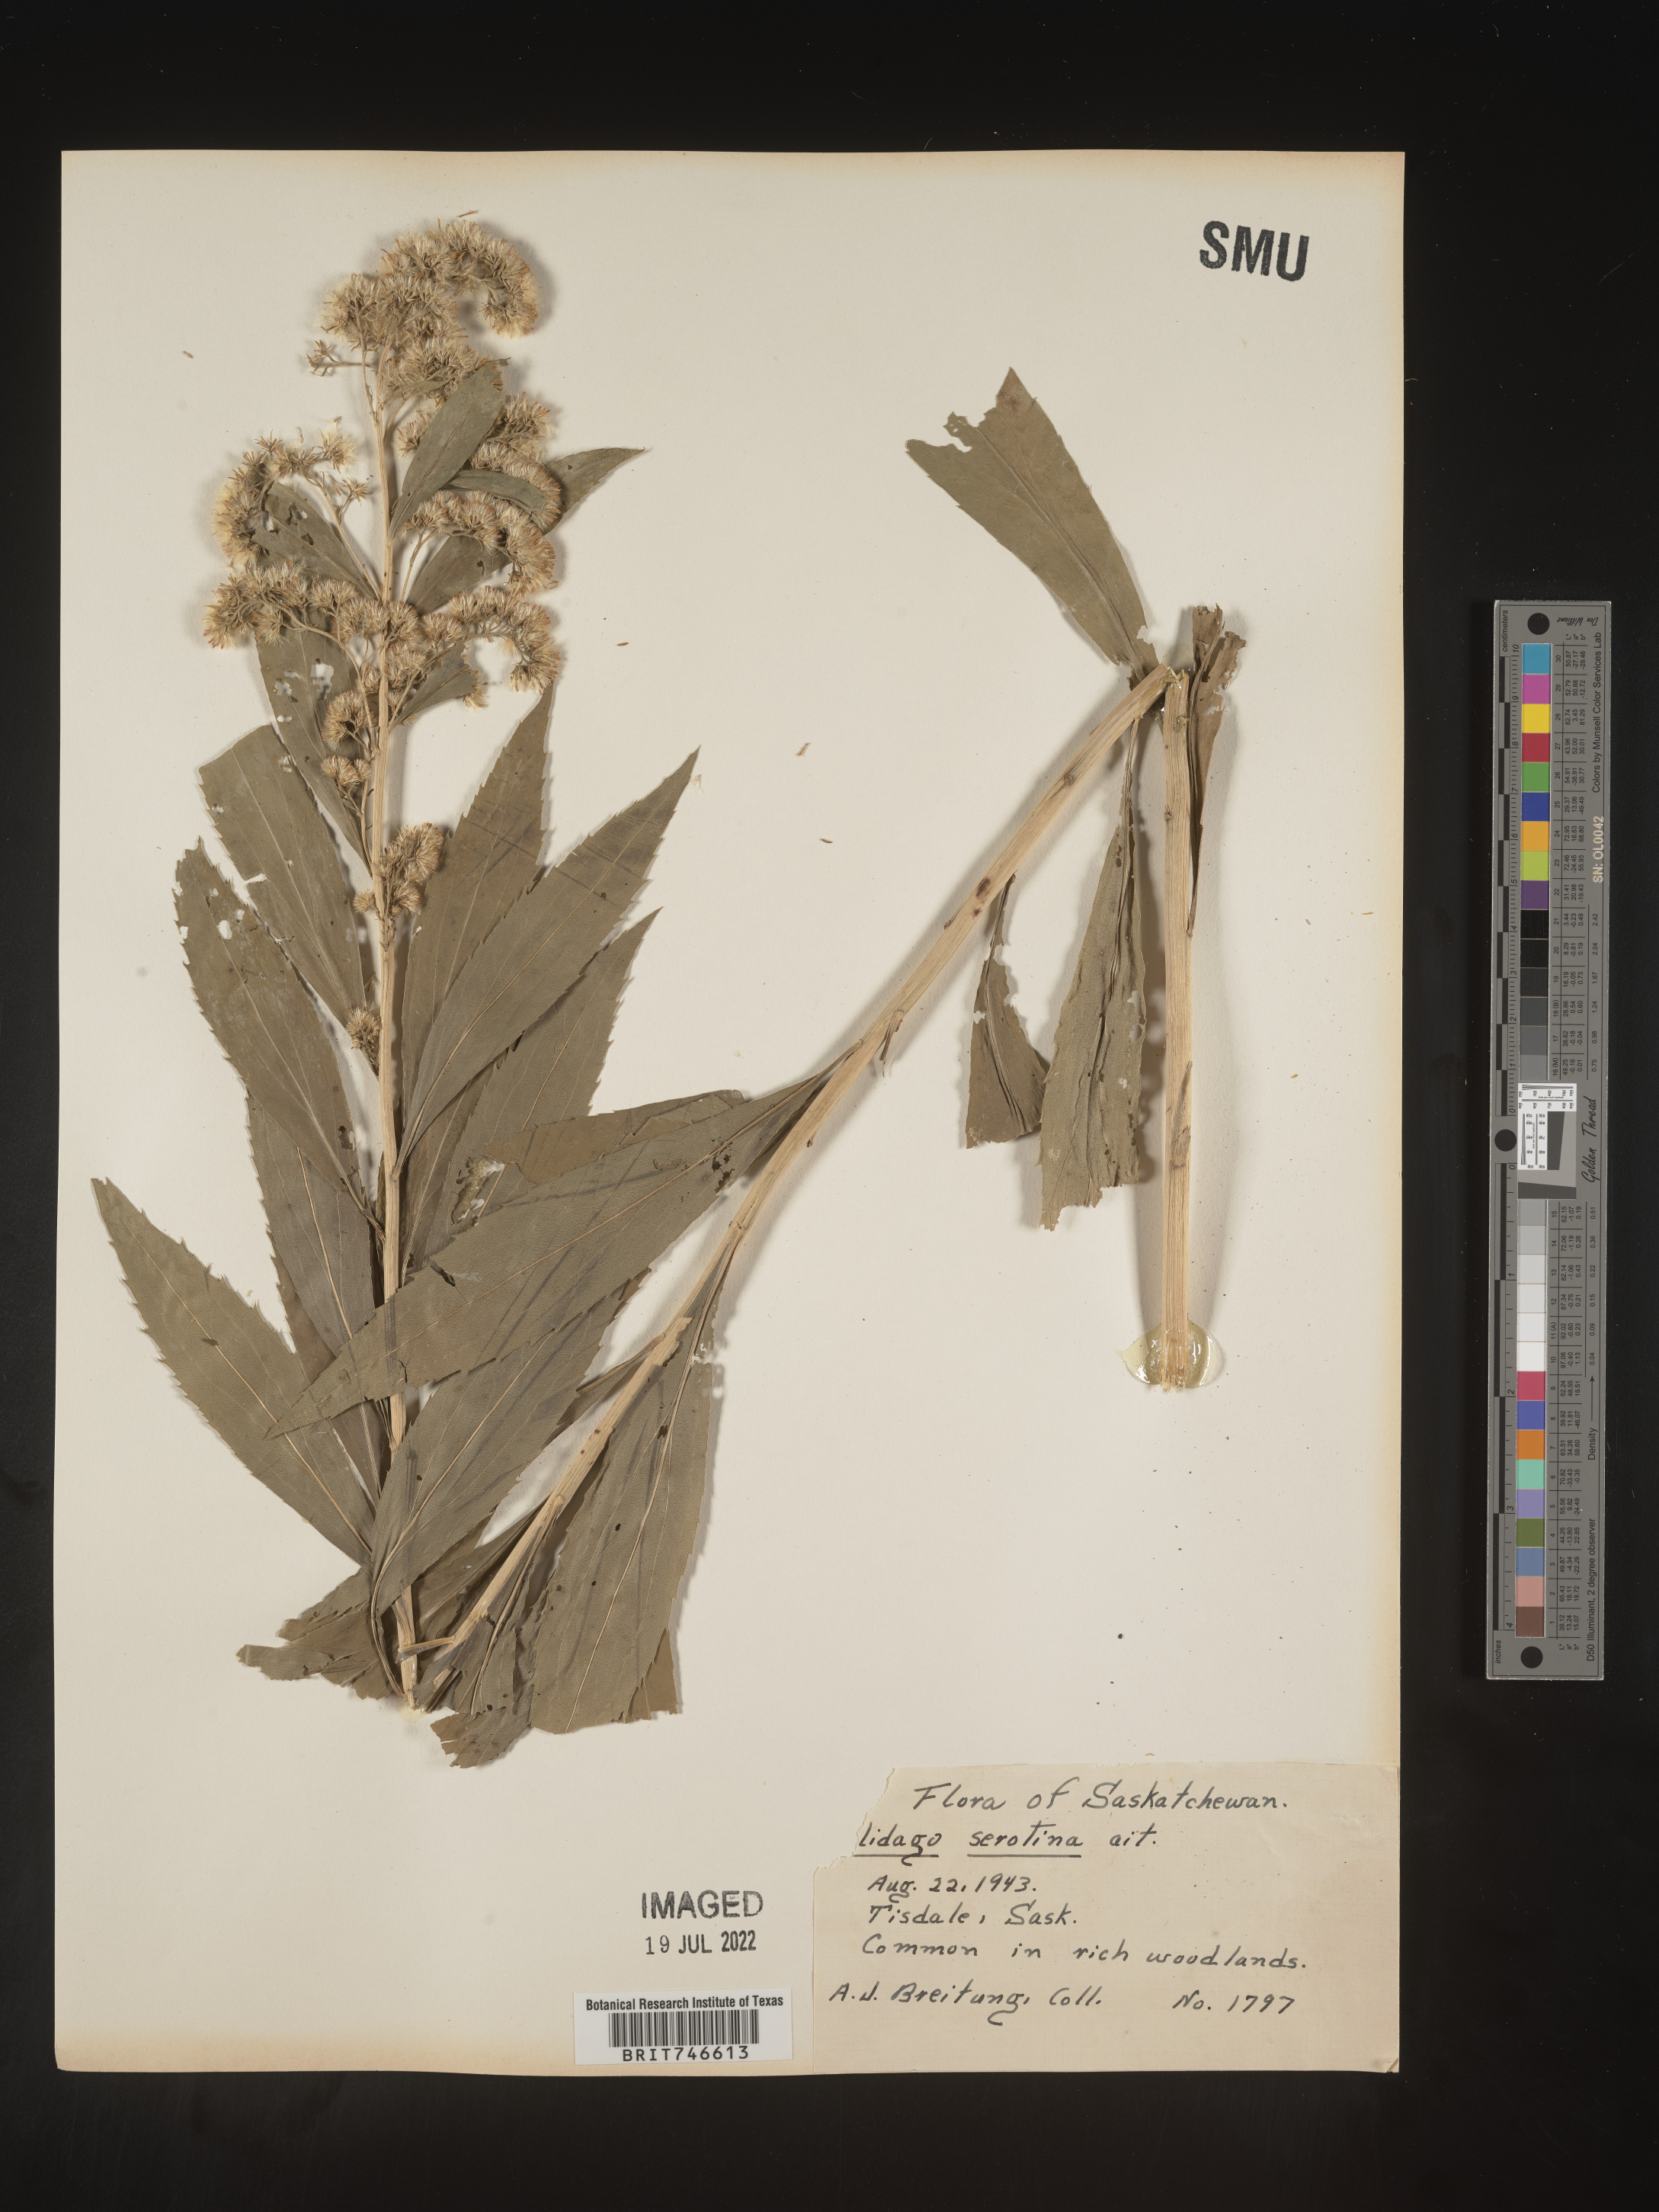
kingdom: Plantae
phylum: Tracheophyta
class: Magnoliopsida
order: Asterales
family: Asteraceae
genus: Solidago
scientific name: Solidago gigantea
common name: Giant goldenrod
